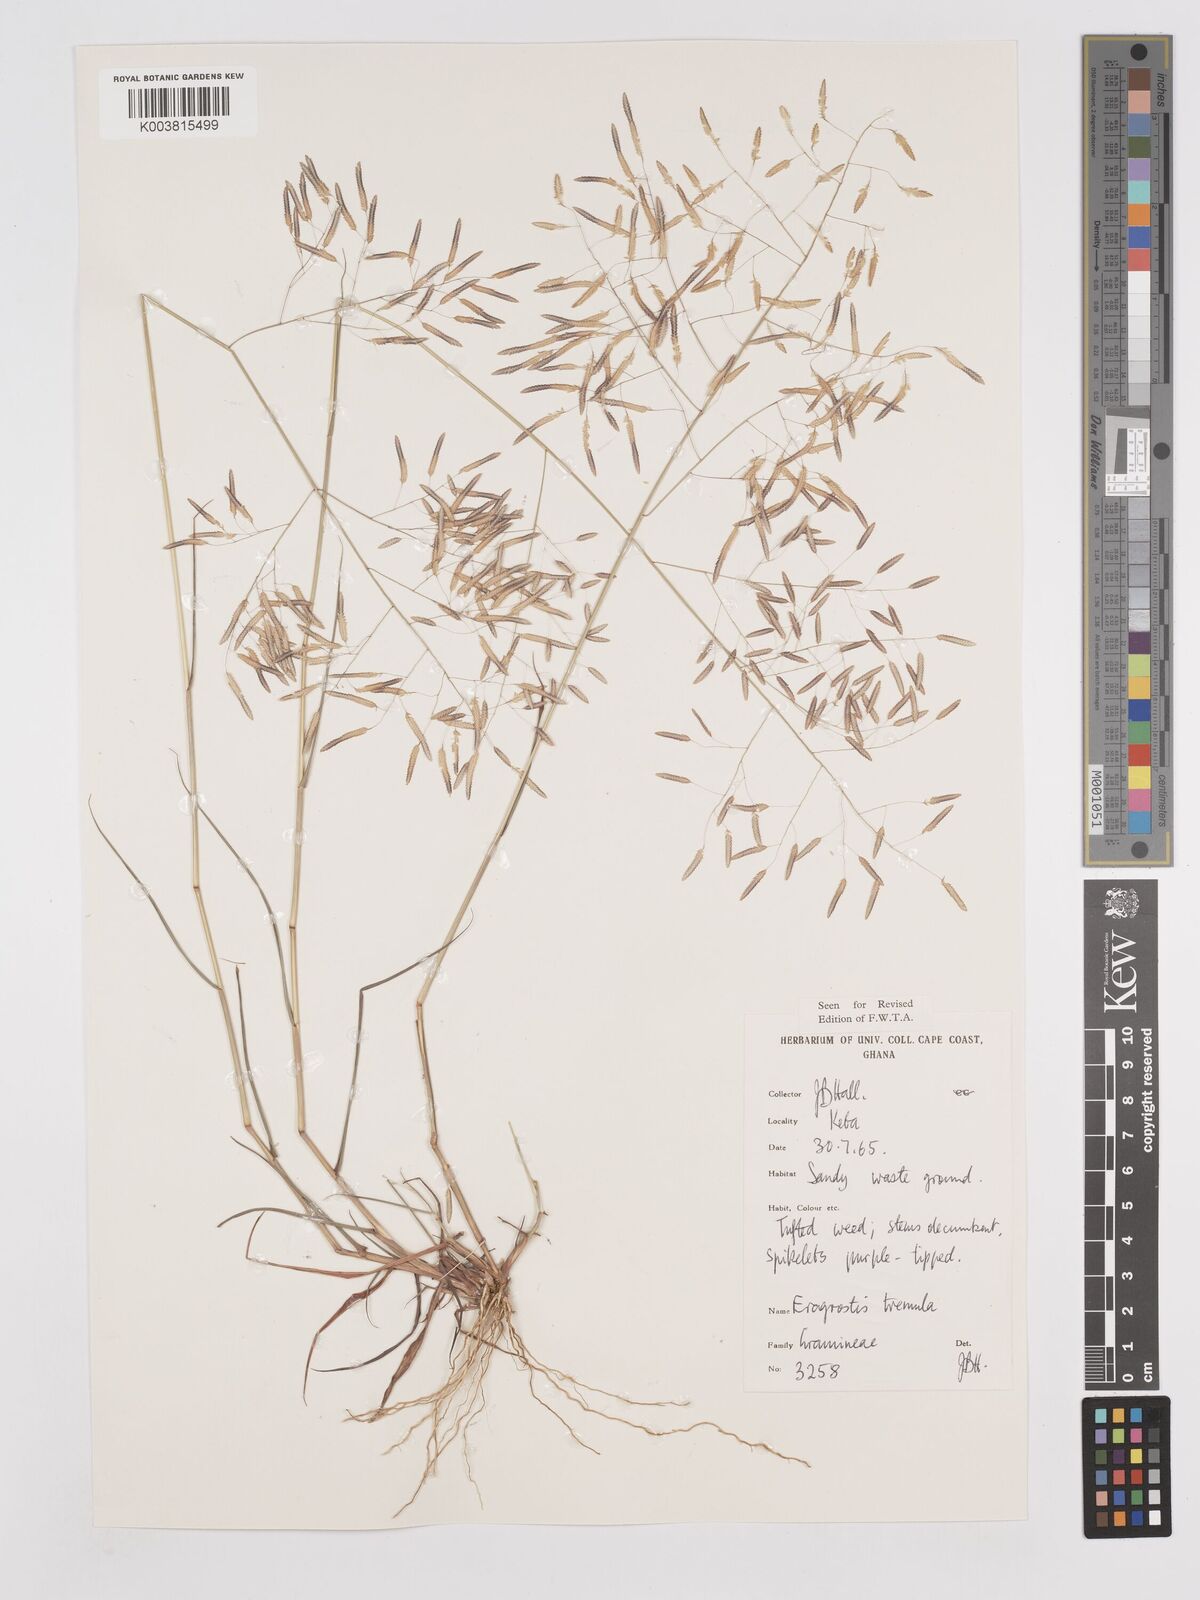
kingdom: Plantae
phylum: Tracheophyta
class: Liliopsida
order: Poales
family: Poaceae
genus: Eragrostis
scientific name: Eragrostis tremula
